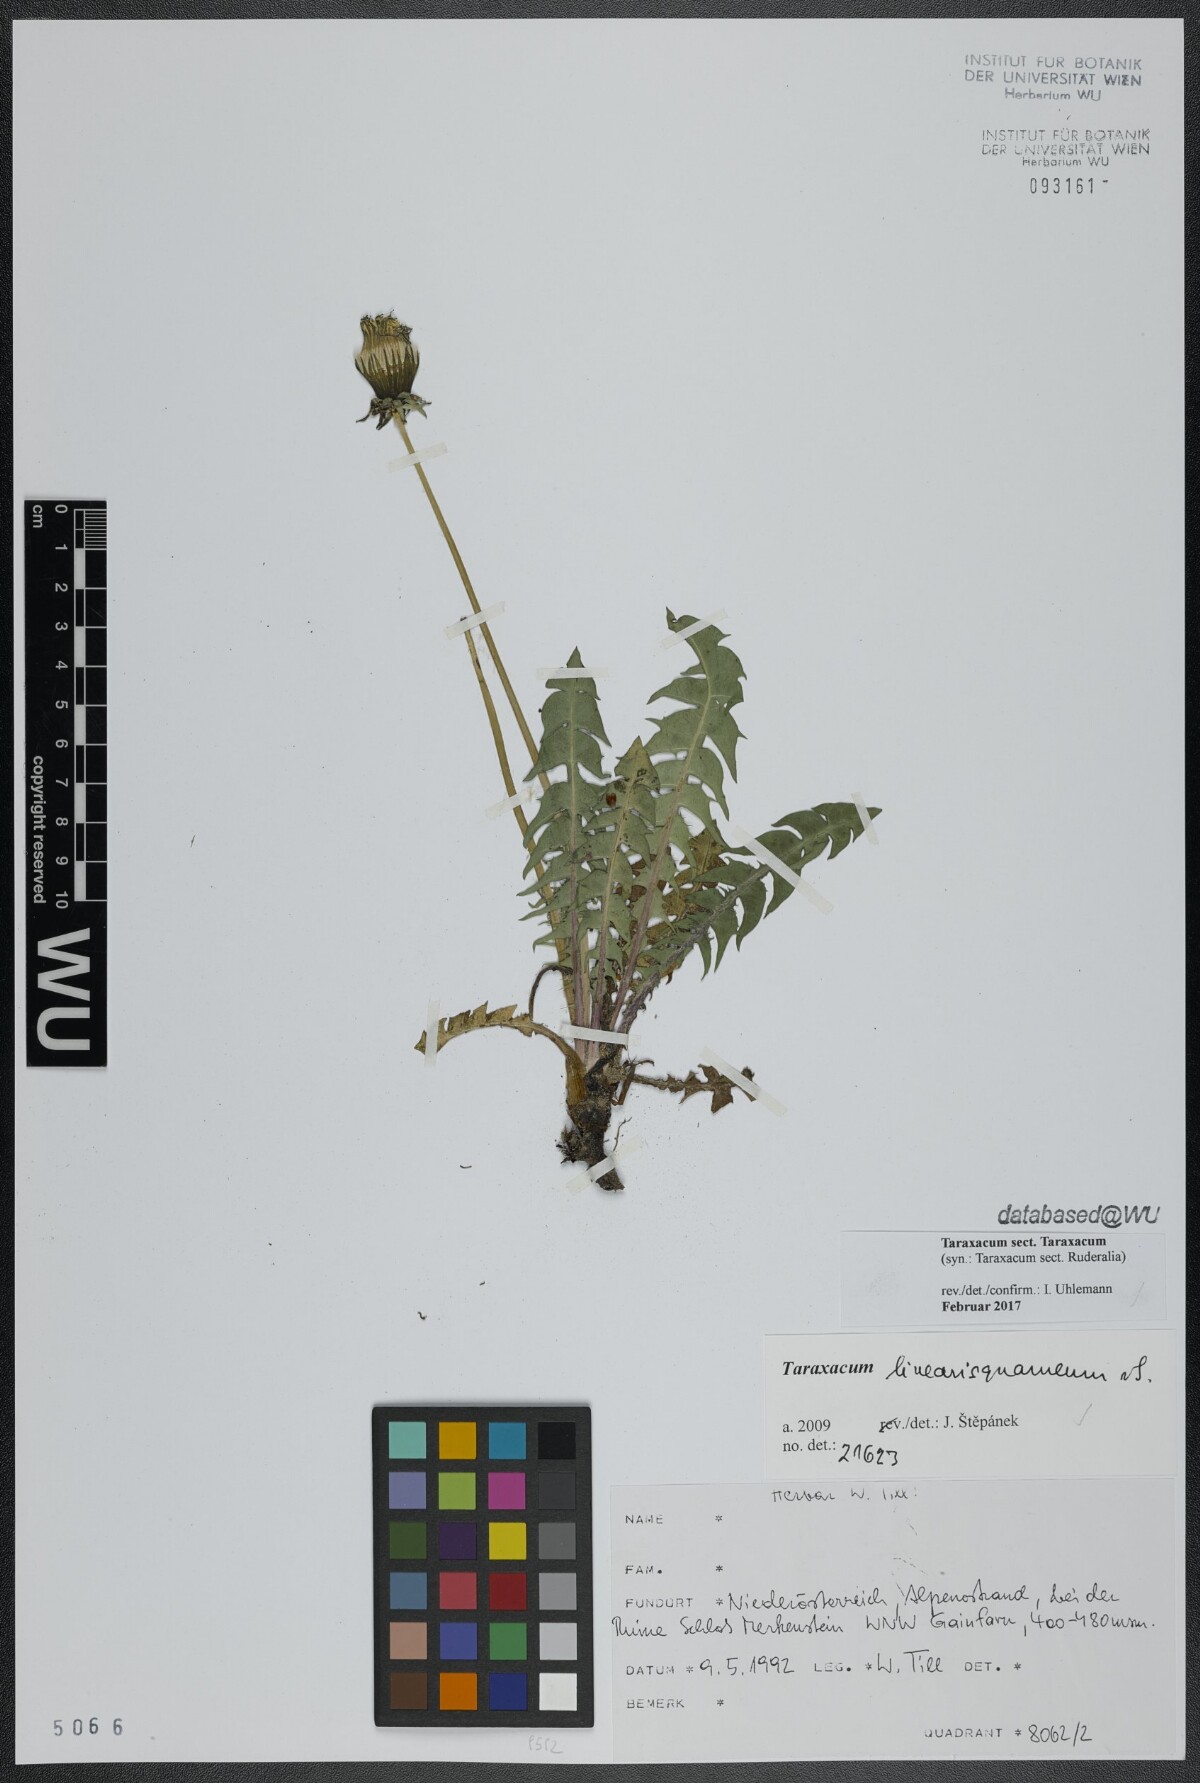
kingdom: Plantae
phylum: Tracheophyta
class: Magnoliopsida
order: Asterales
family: Asteraceae
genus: Taraxacum
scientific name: Taraxacum
